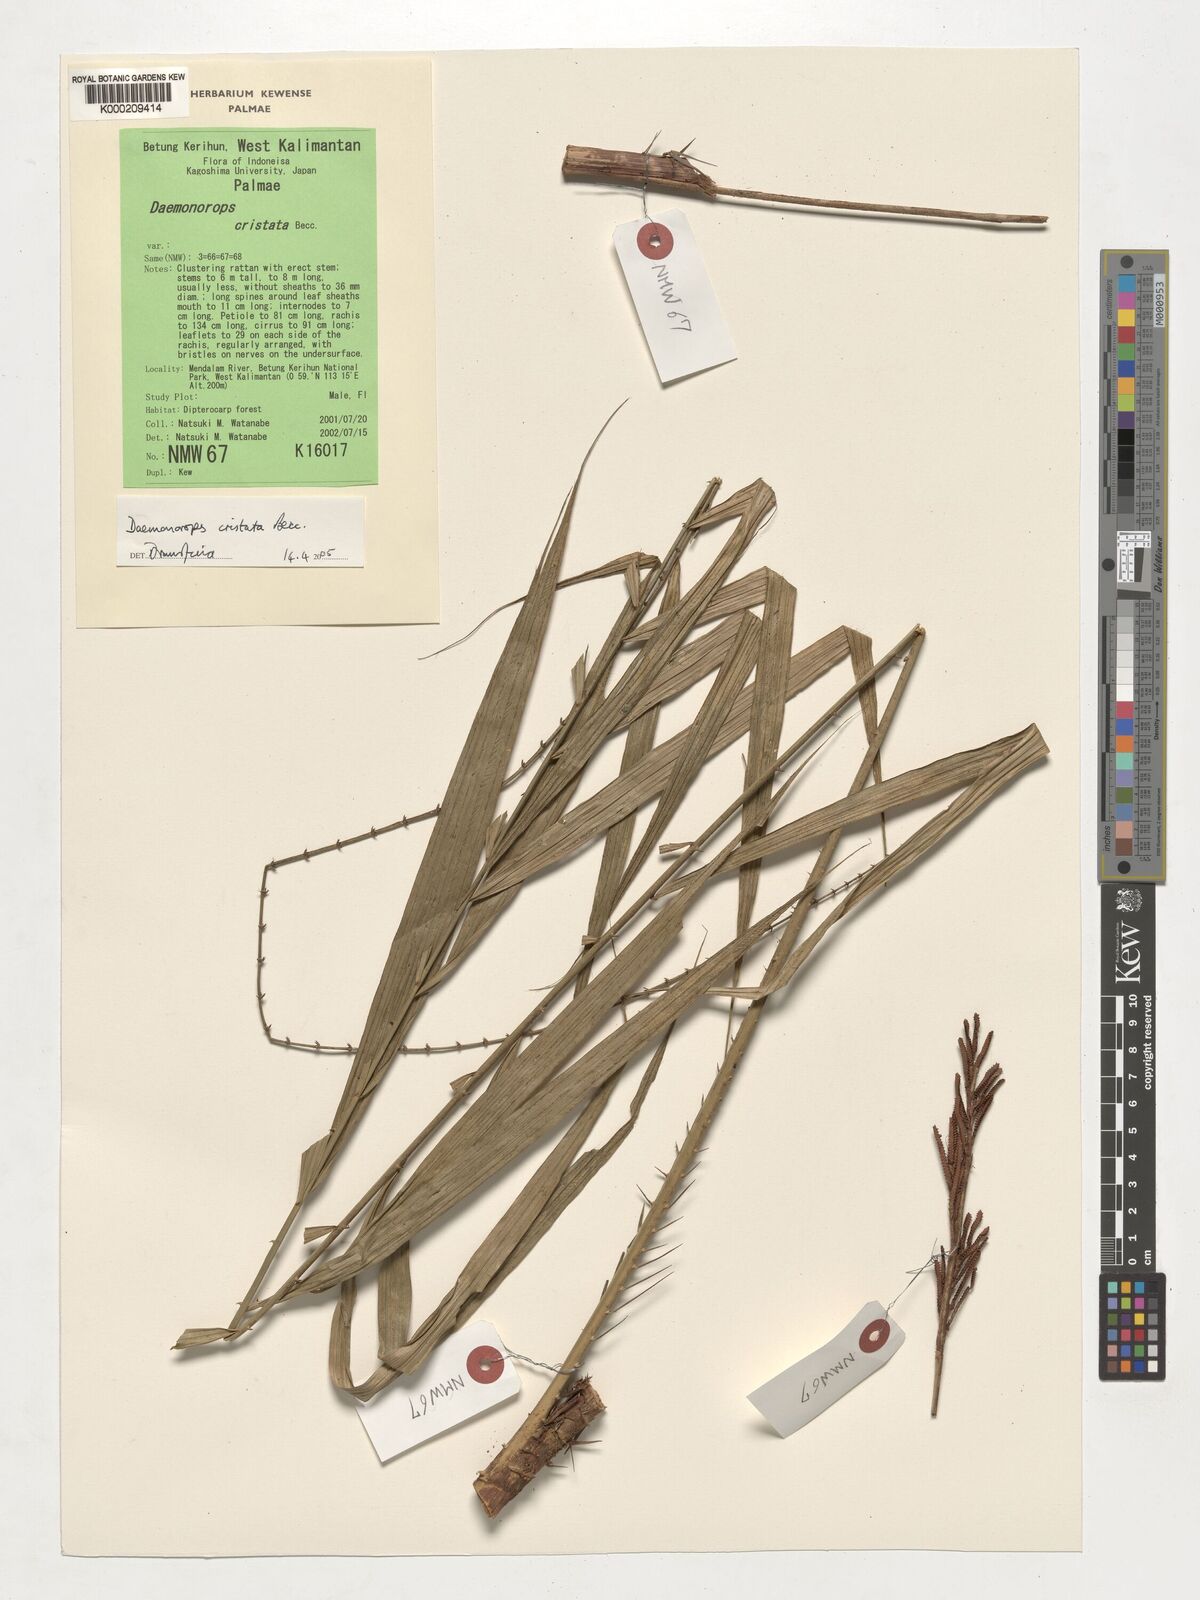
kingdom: Plantae
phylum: Tracheophyta
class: Liliopsida
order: Arecales
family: Arecaceae
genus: Calamus
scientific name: Calamus cristatus
